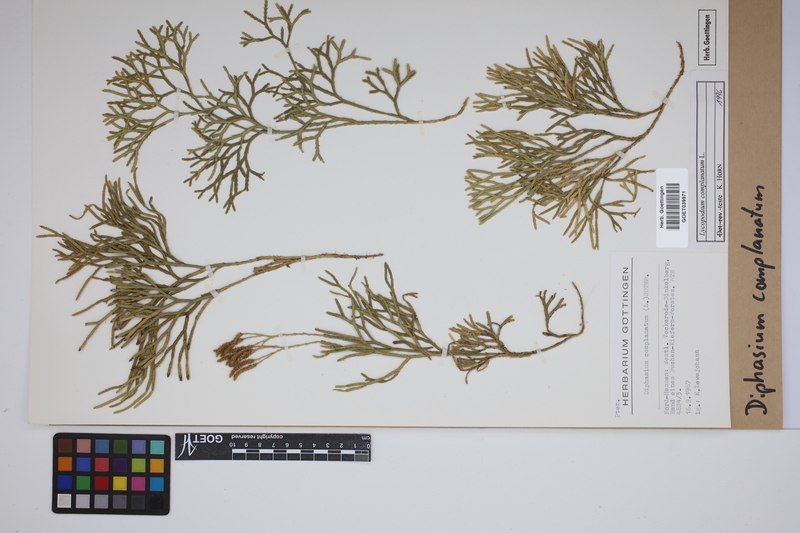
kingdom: Plantae
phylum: Tracheophyta
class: Lycopodiopsida
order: Lycopodiales
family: Lycopodiaceae
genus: Diphasiastrum
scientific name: Diphasiastrum complanatum
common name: Northern running-pine
